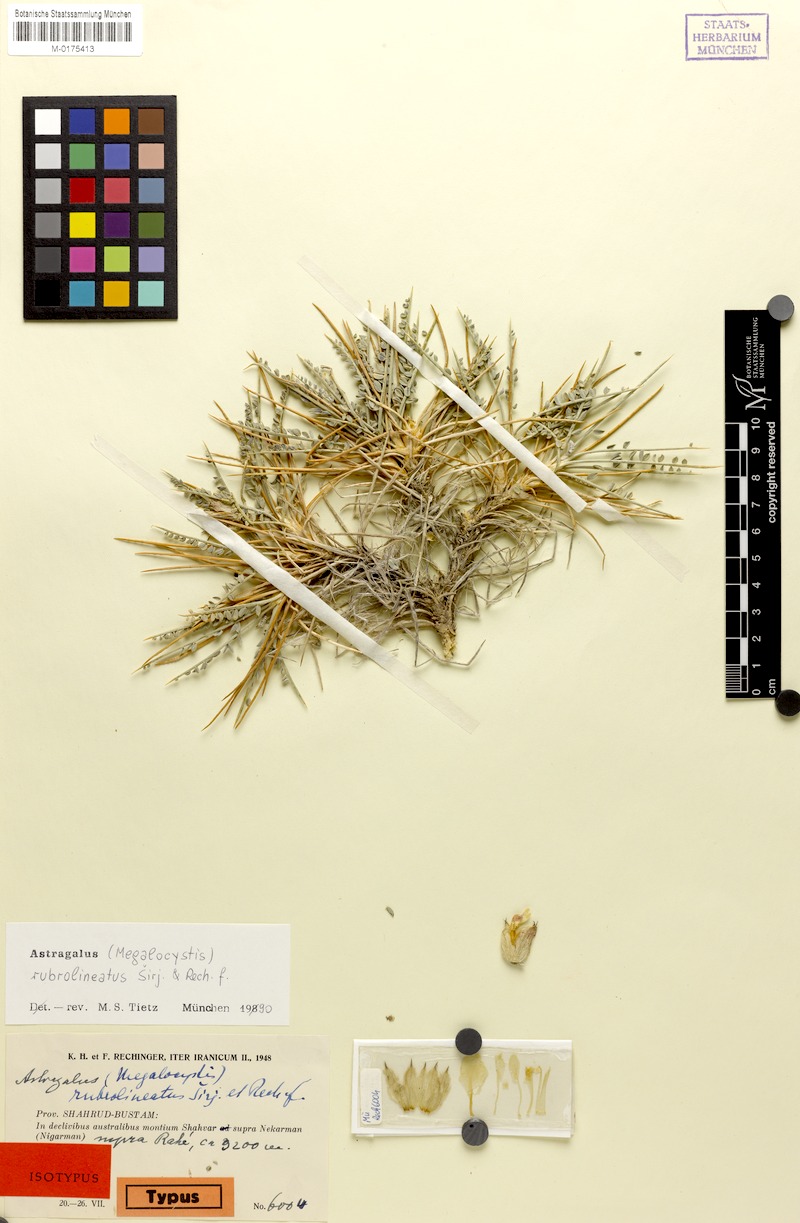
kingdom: Plantae
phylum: Tracheophyta
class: Magnoliopsida
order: Fabales
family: Fabaceae
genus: Astragalus
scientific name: Astragalus rubrolineatus
